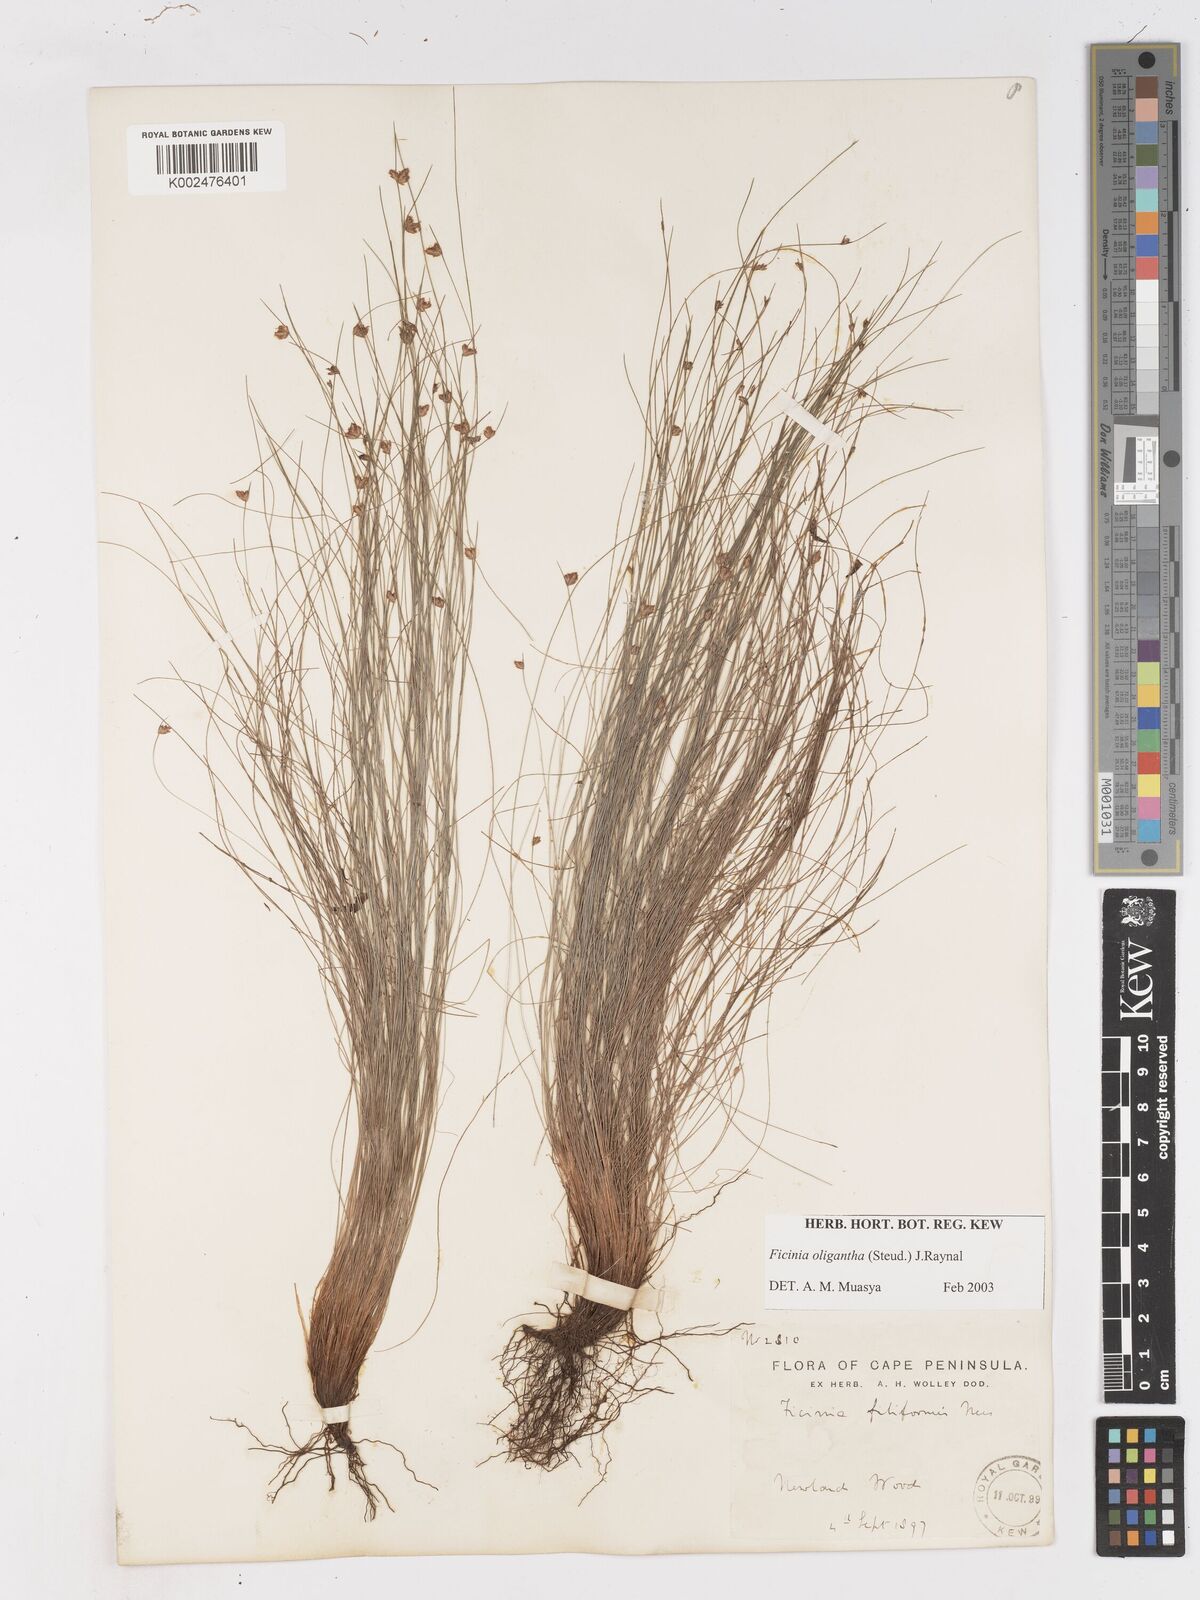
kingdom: Plantae
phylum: Tracheophyta
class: Liliopsida
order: Poales
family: Cyperaceae
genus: Ficinia
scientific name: Ficinia oligantha
